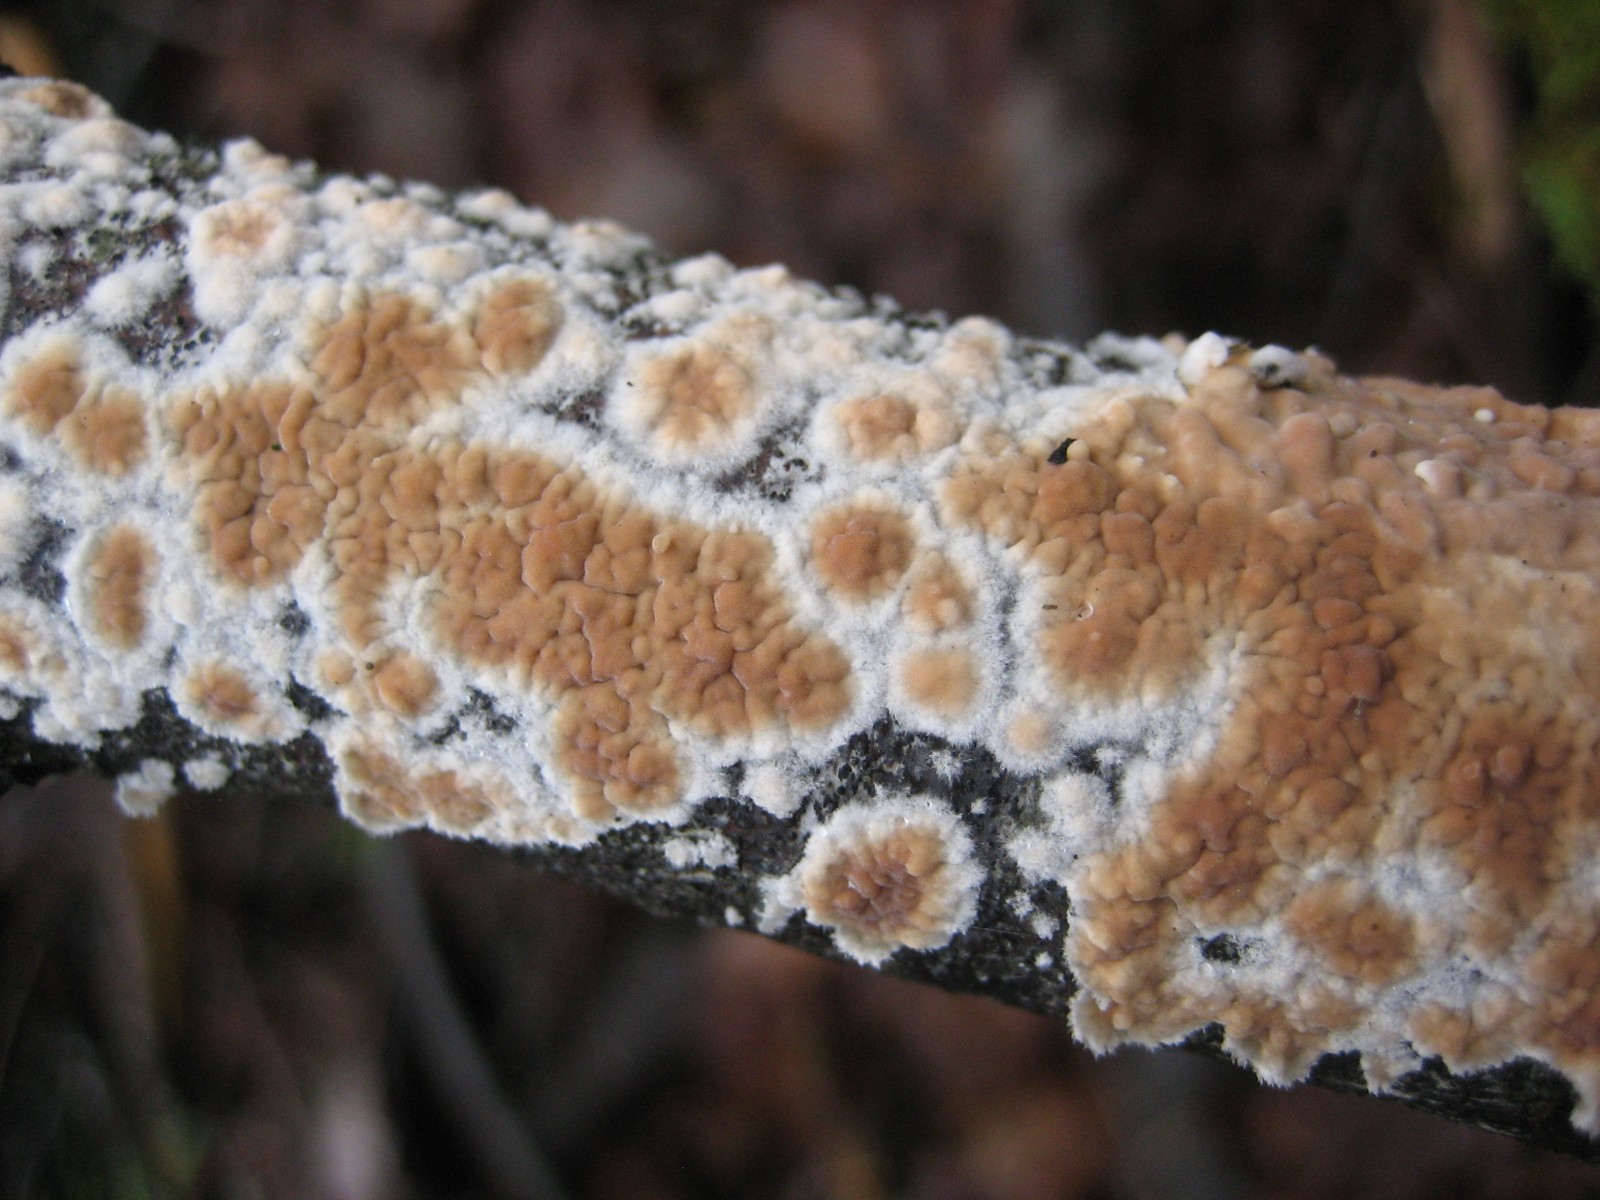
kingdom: Fungi
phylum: Basidiomycota
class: Agaricomycetes
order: Agaricales
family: Physalacriaceae
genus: Cylindrobasidium
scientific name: Cylindrobasidium evolvens
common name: sprækkehinde
